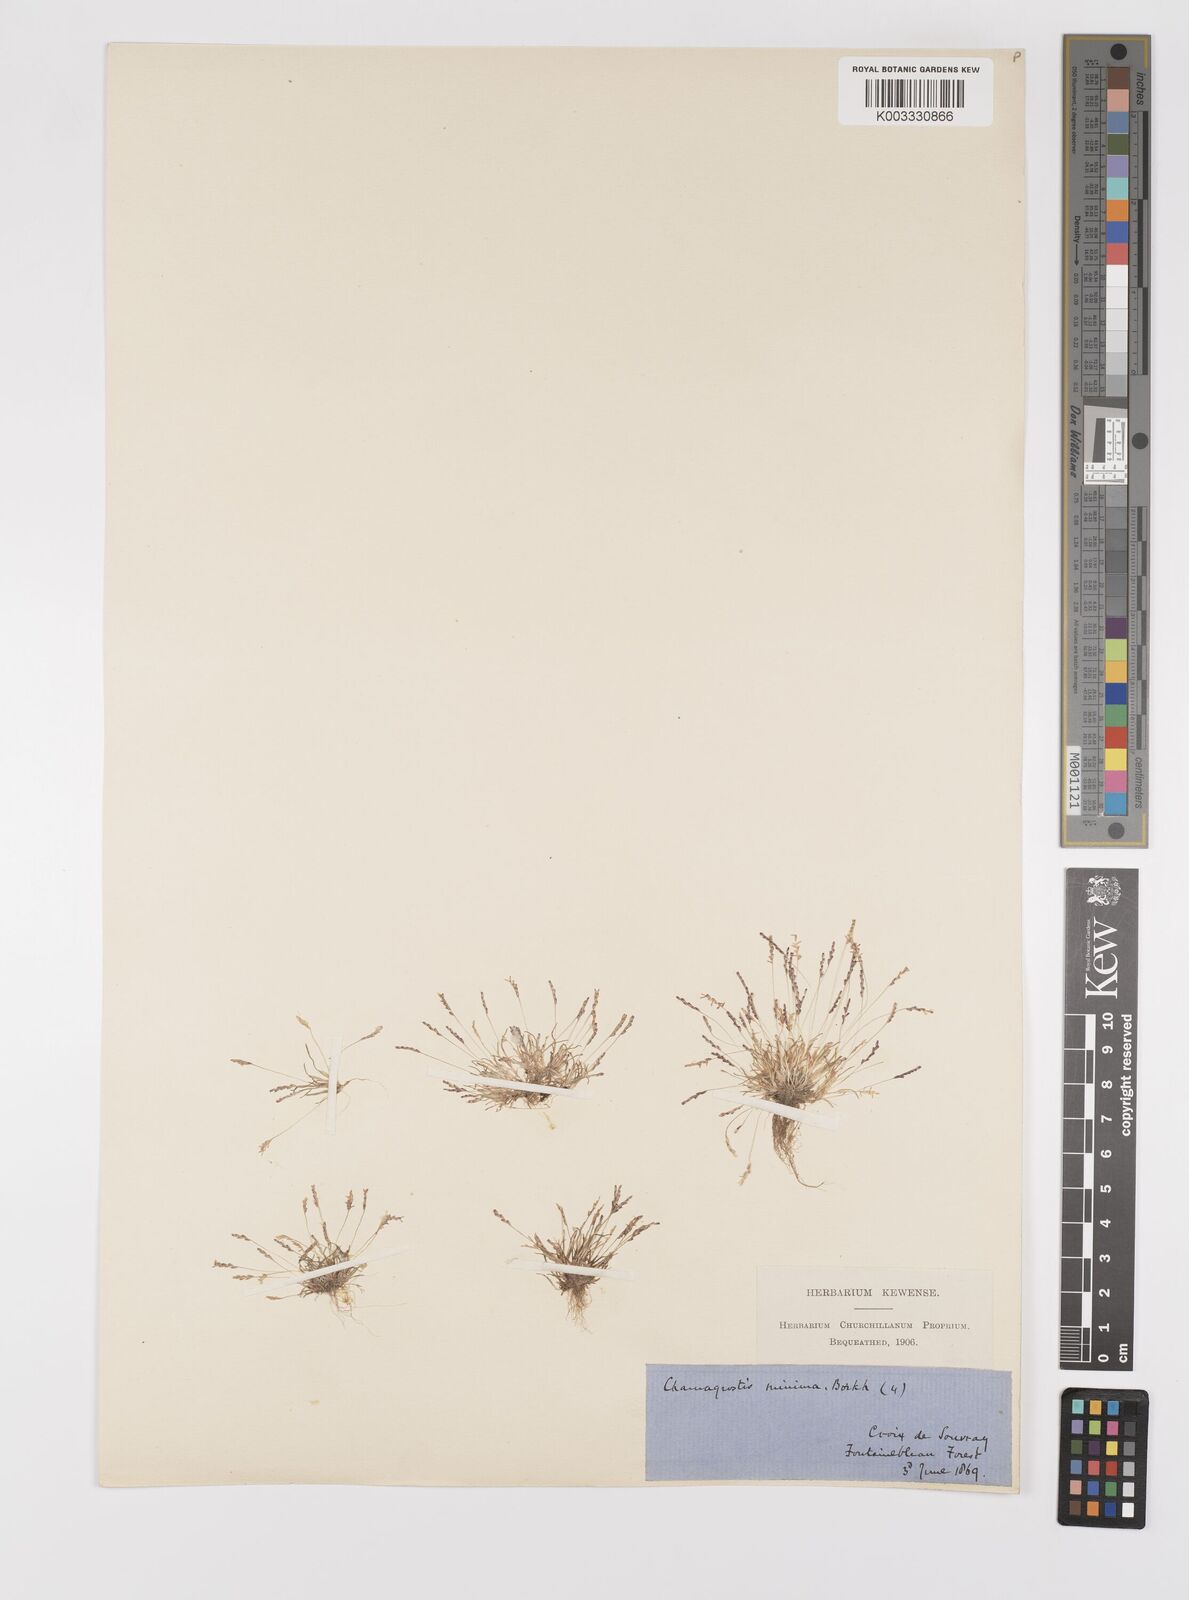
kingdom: Plantae
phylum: Tracheophyta
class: Liliopsida
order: Poales
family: Poaceae
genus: Mibora
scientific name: Mibora minima
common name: Early sand-grass
